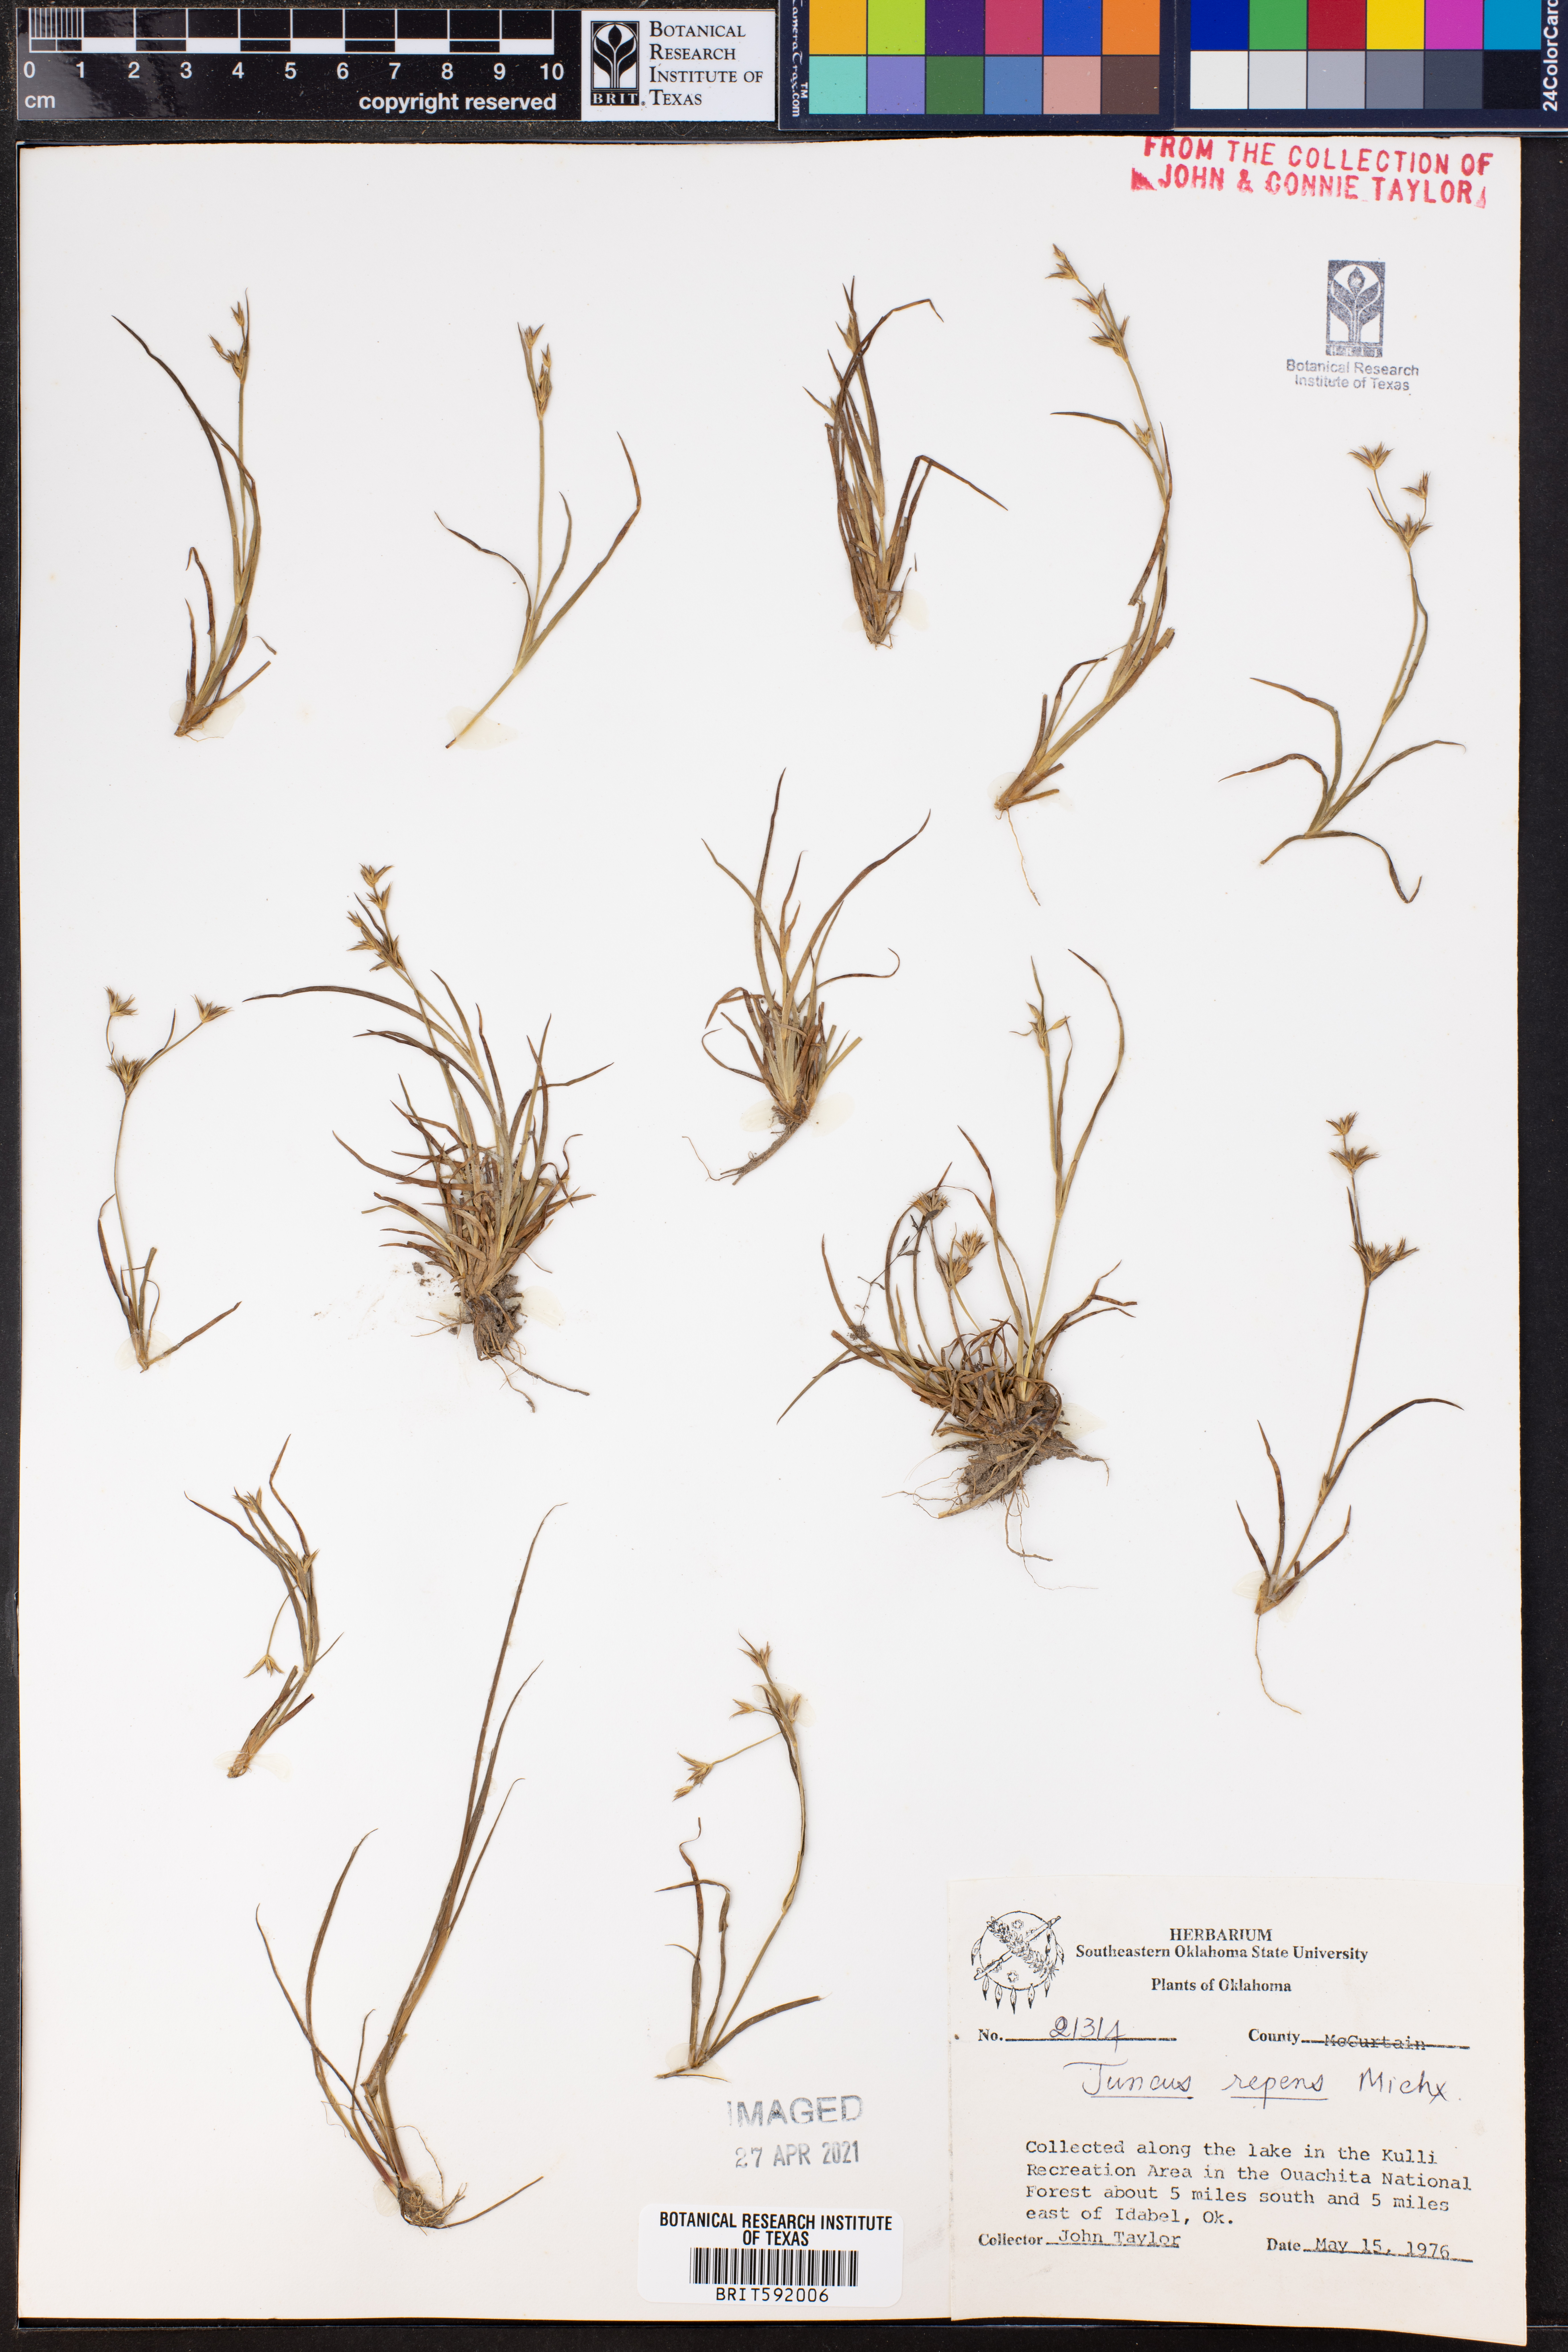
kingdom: Plantae
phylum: Tracheophyta
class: Liliopsida
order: Poales
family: Juncaceae
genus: Juncus
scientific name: Juncus repens
